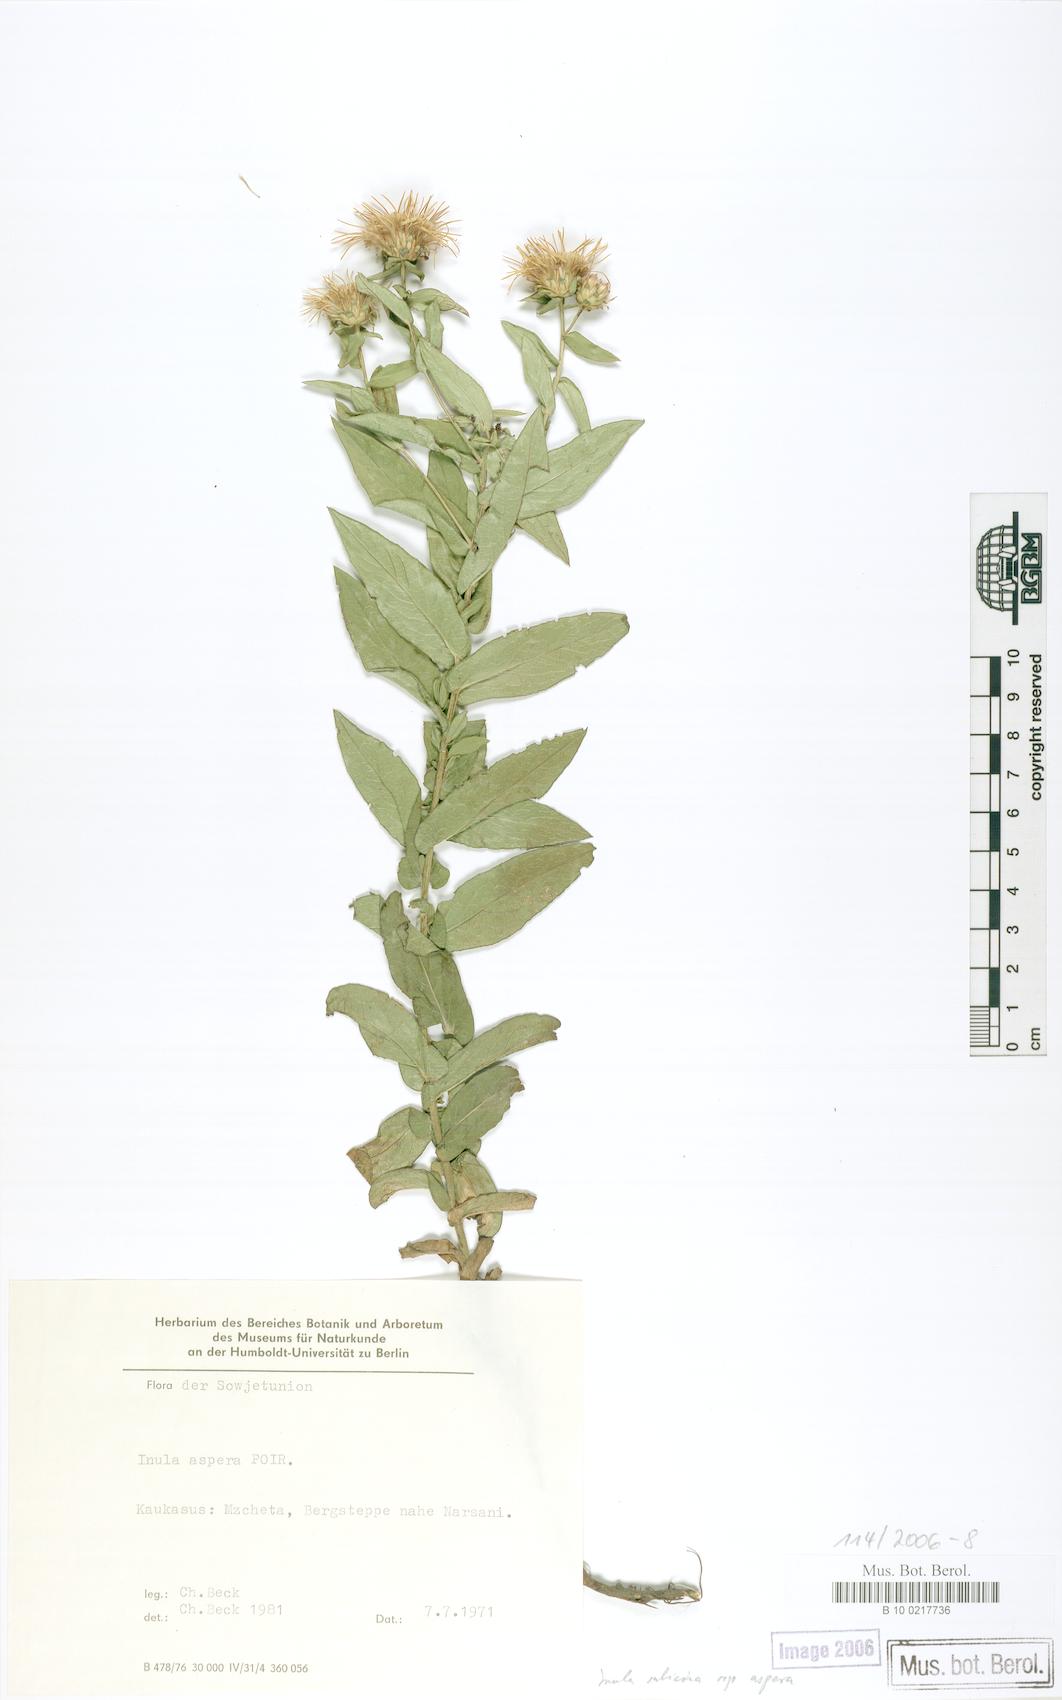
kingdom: Plantae
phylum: Tracheophyta
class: Magnoliopsida
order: Asterales
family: Asteraceae
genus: Pentanema
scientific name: Pentanema salicinum
